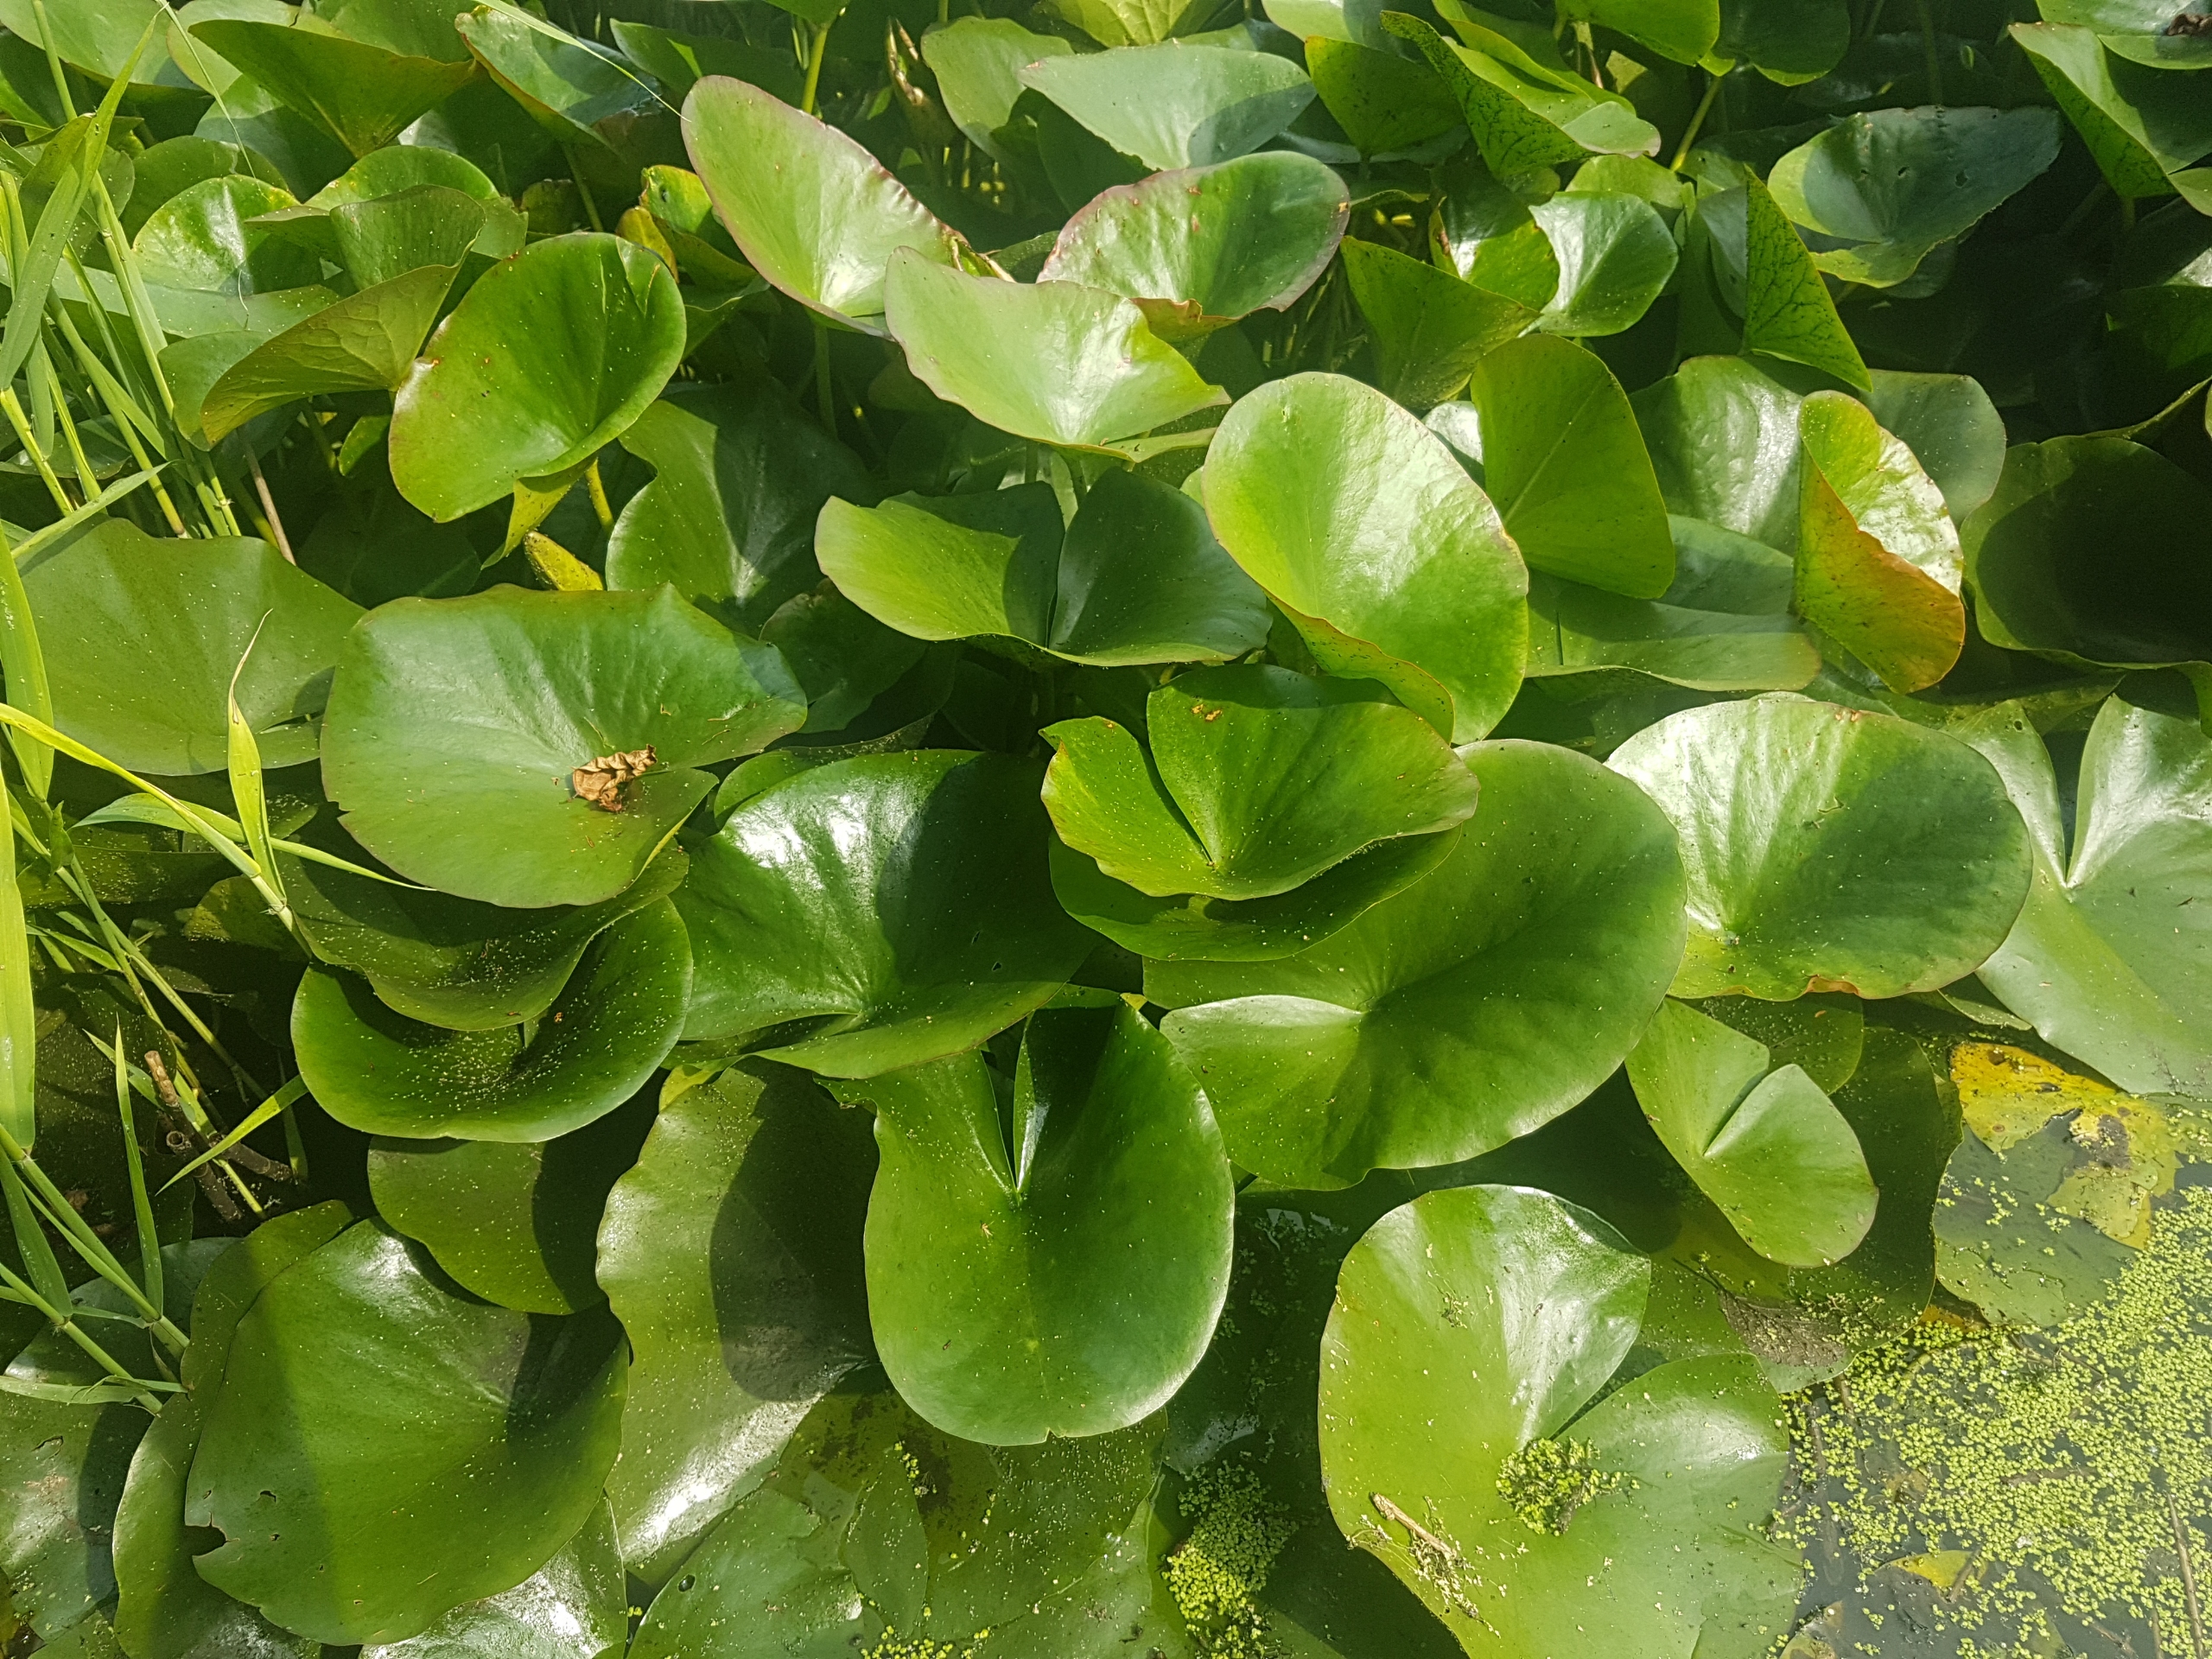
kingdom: Plantae
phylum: Tracheophyta
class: Magnoliopsida
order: Nymphaeales
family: Nymphaeaceae
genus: Nymphaea
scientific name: Nymphaea alba
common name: Hvid åkande
